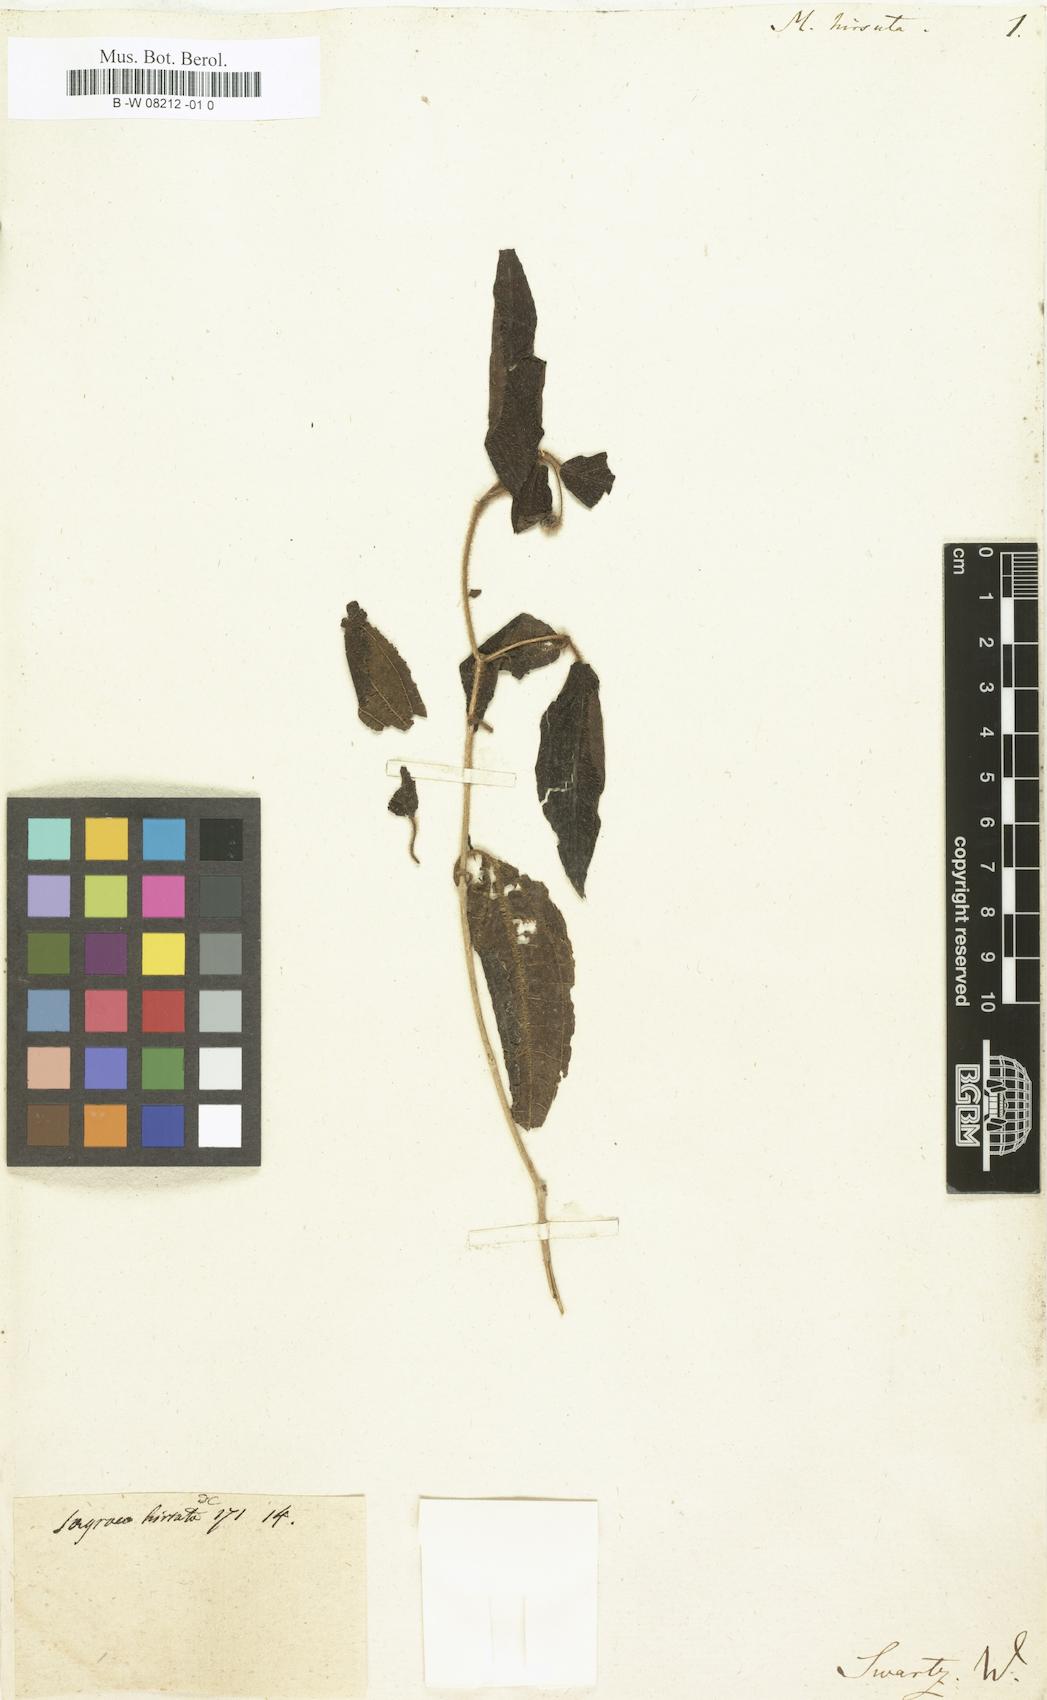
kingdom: Plantae
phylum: Tracheophyta
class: Magnoliopsida
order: Myrtales
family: Melastomataceae
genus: Melastoma
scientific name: Melastoma hirsutum
